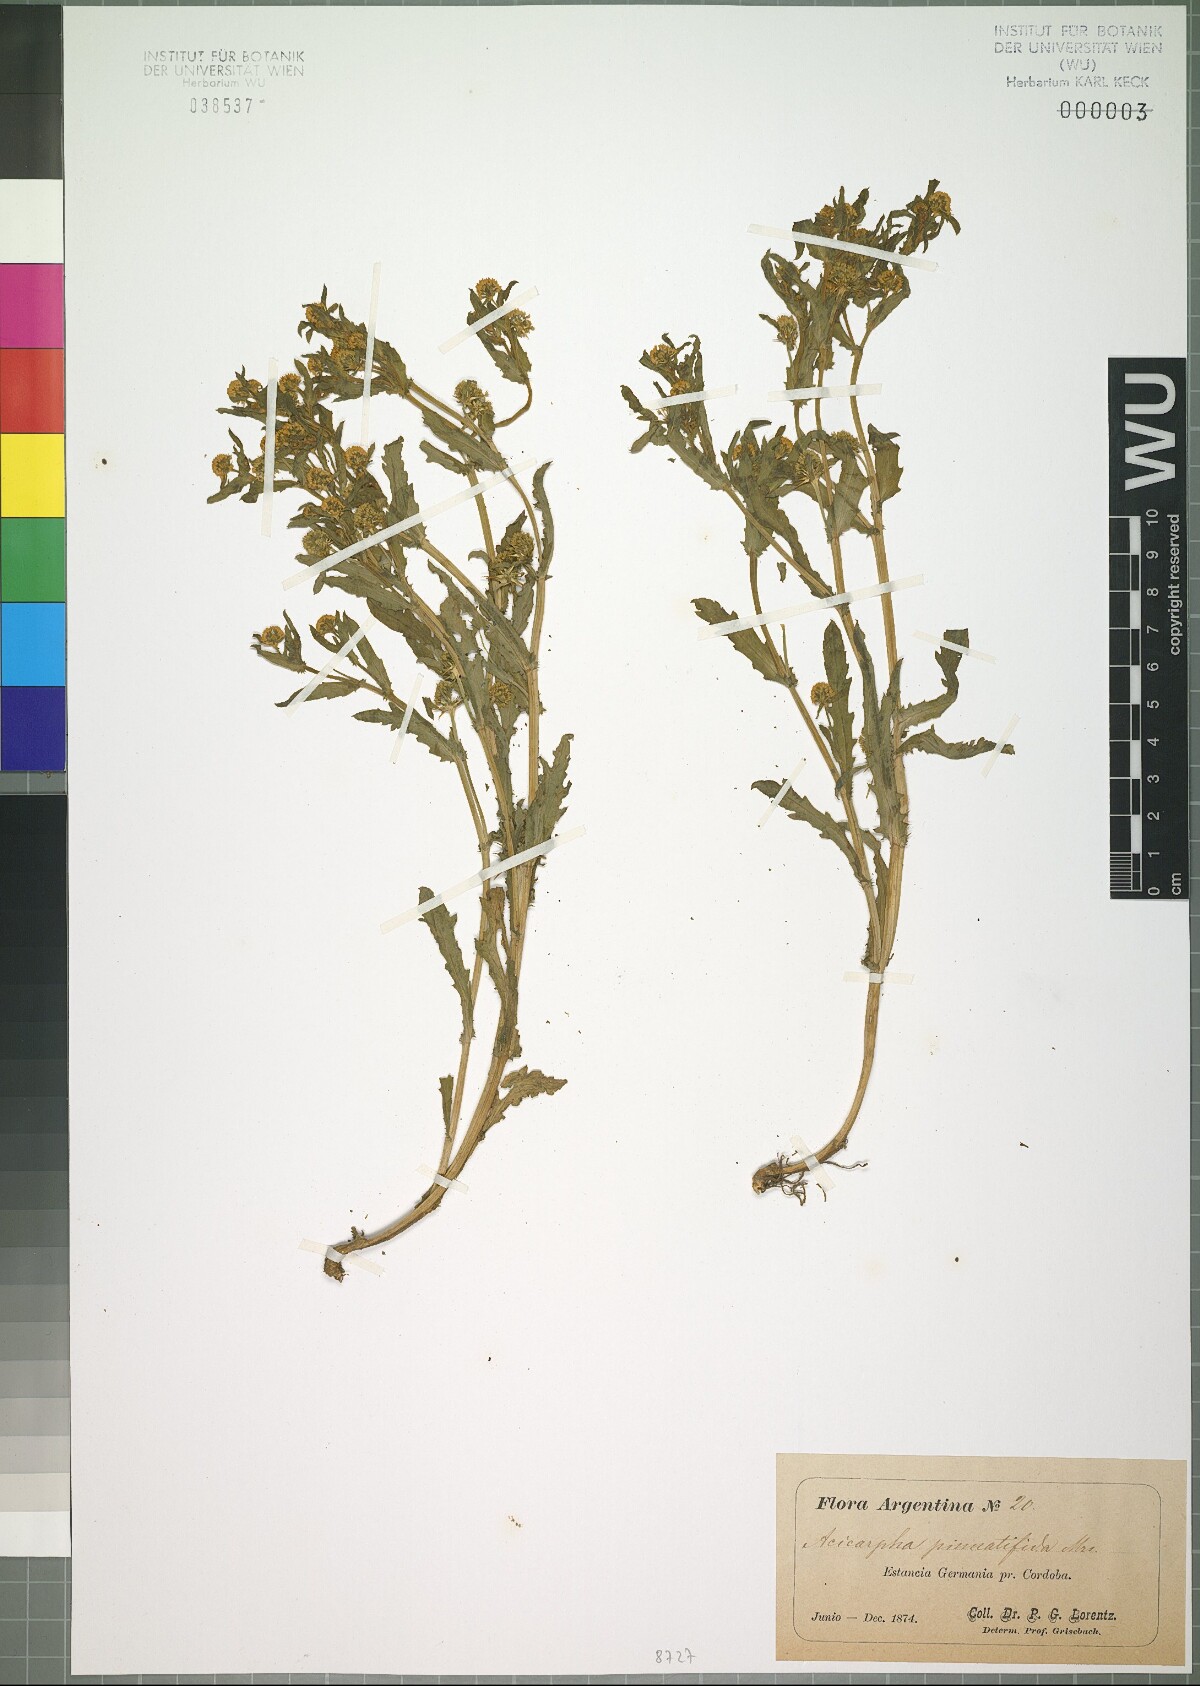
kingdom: Plantae
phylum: Tracheophyta
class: Magnoliopsida
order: Asterales
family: Calyceraceae
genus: Acicarpha
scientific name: Acicarpha tribuloides
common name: Madam gorgon
